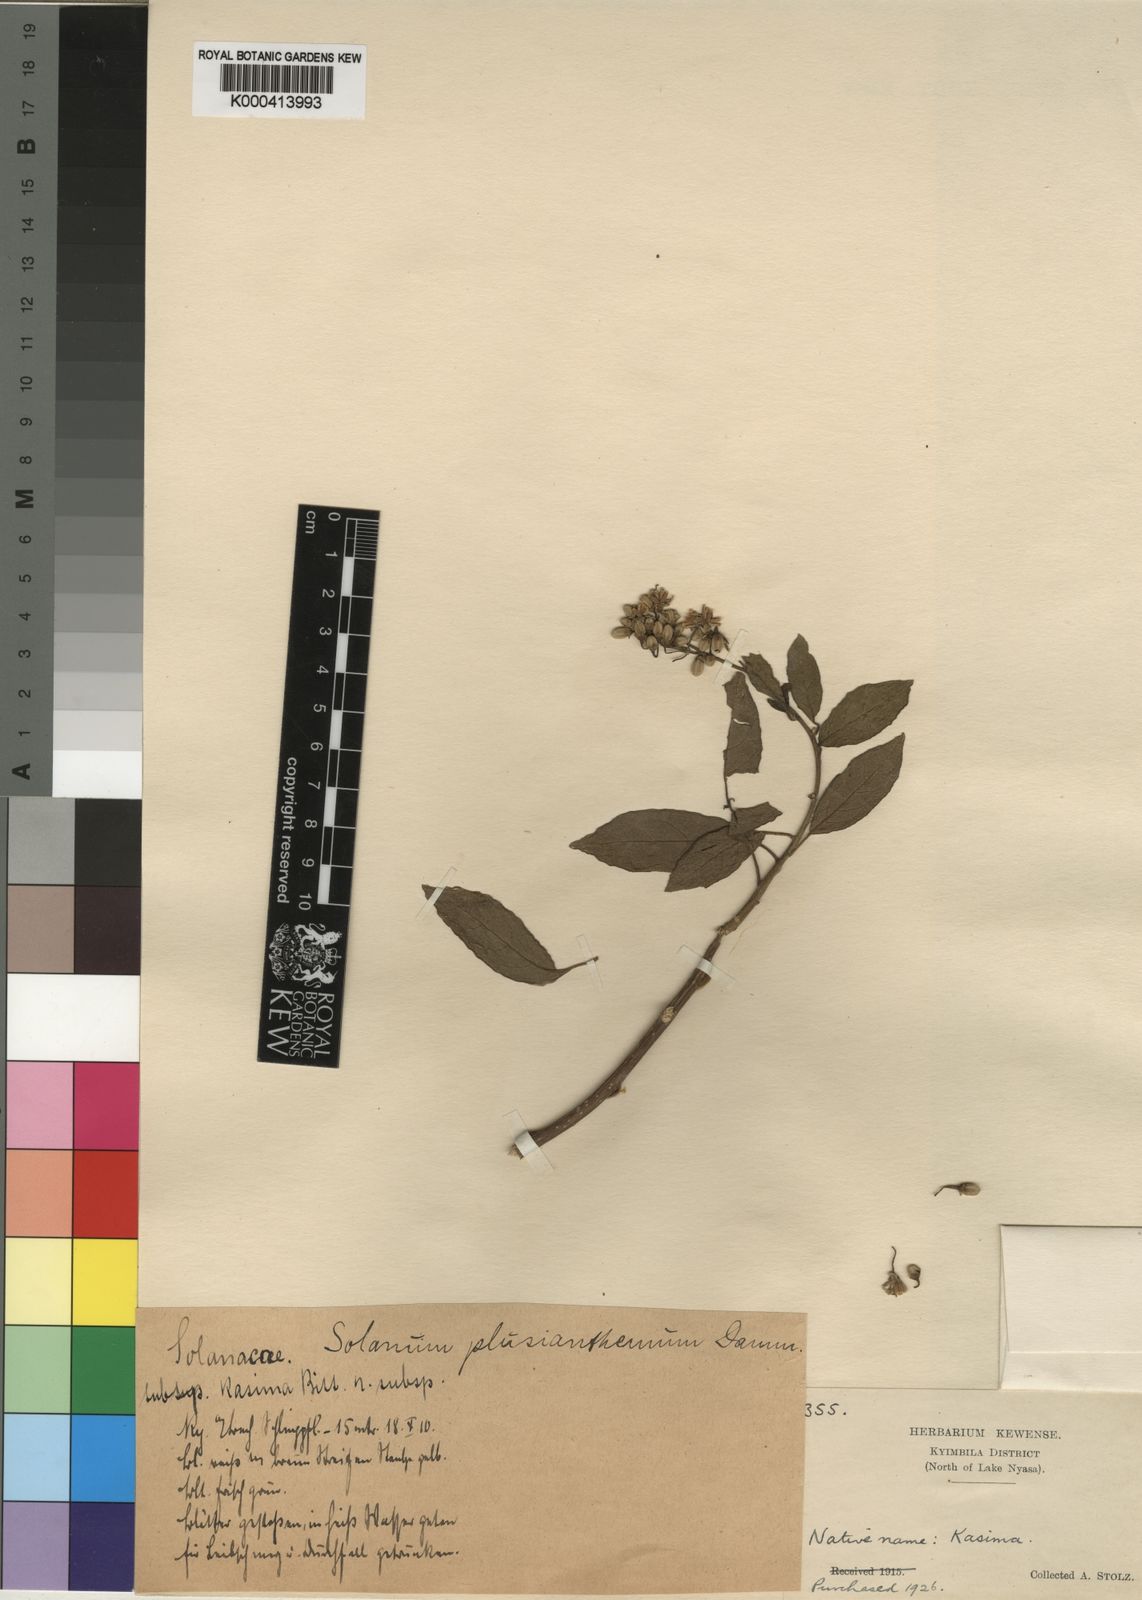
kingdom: Plantae
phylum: Tracheophyta
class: Magnoliopsida
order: Solanales
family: Solanaceae
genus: Solanum
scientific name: Solanum terminale
